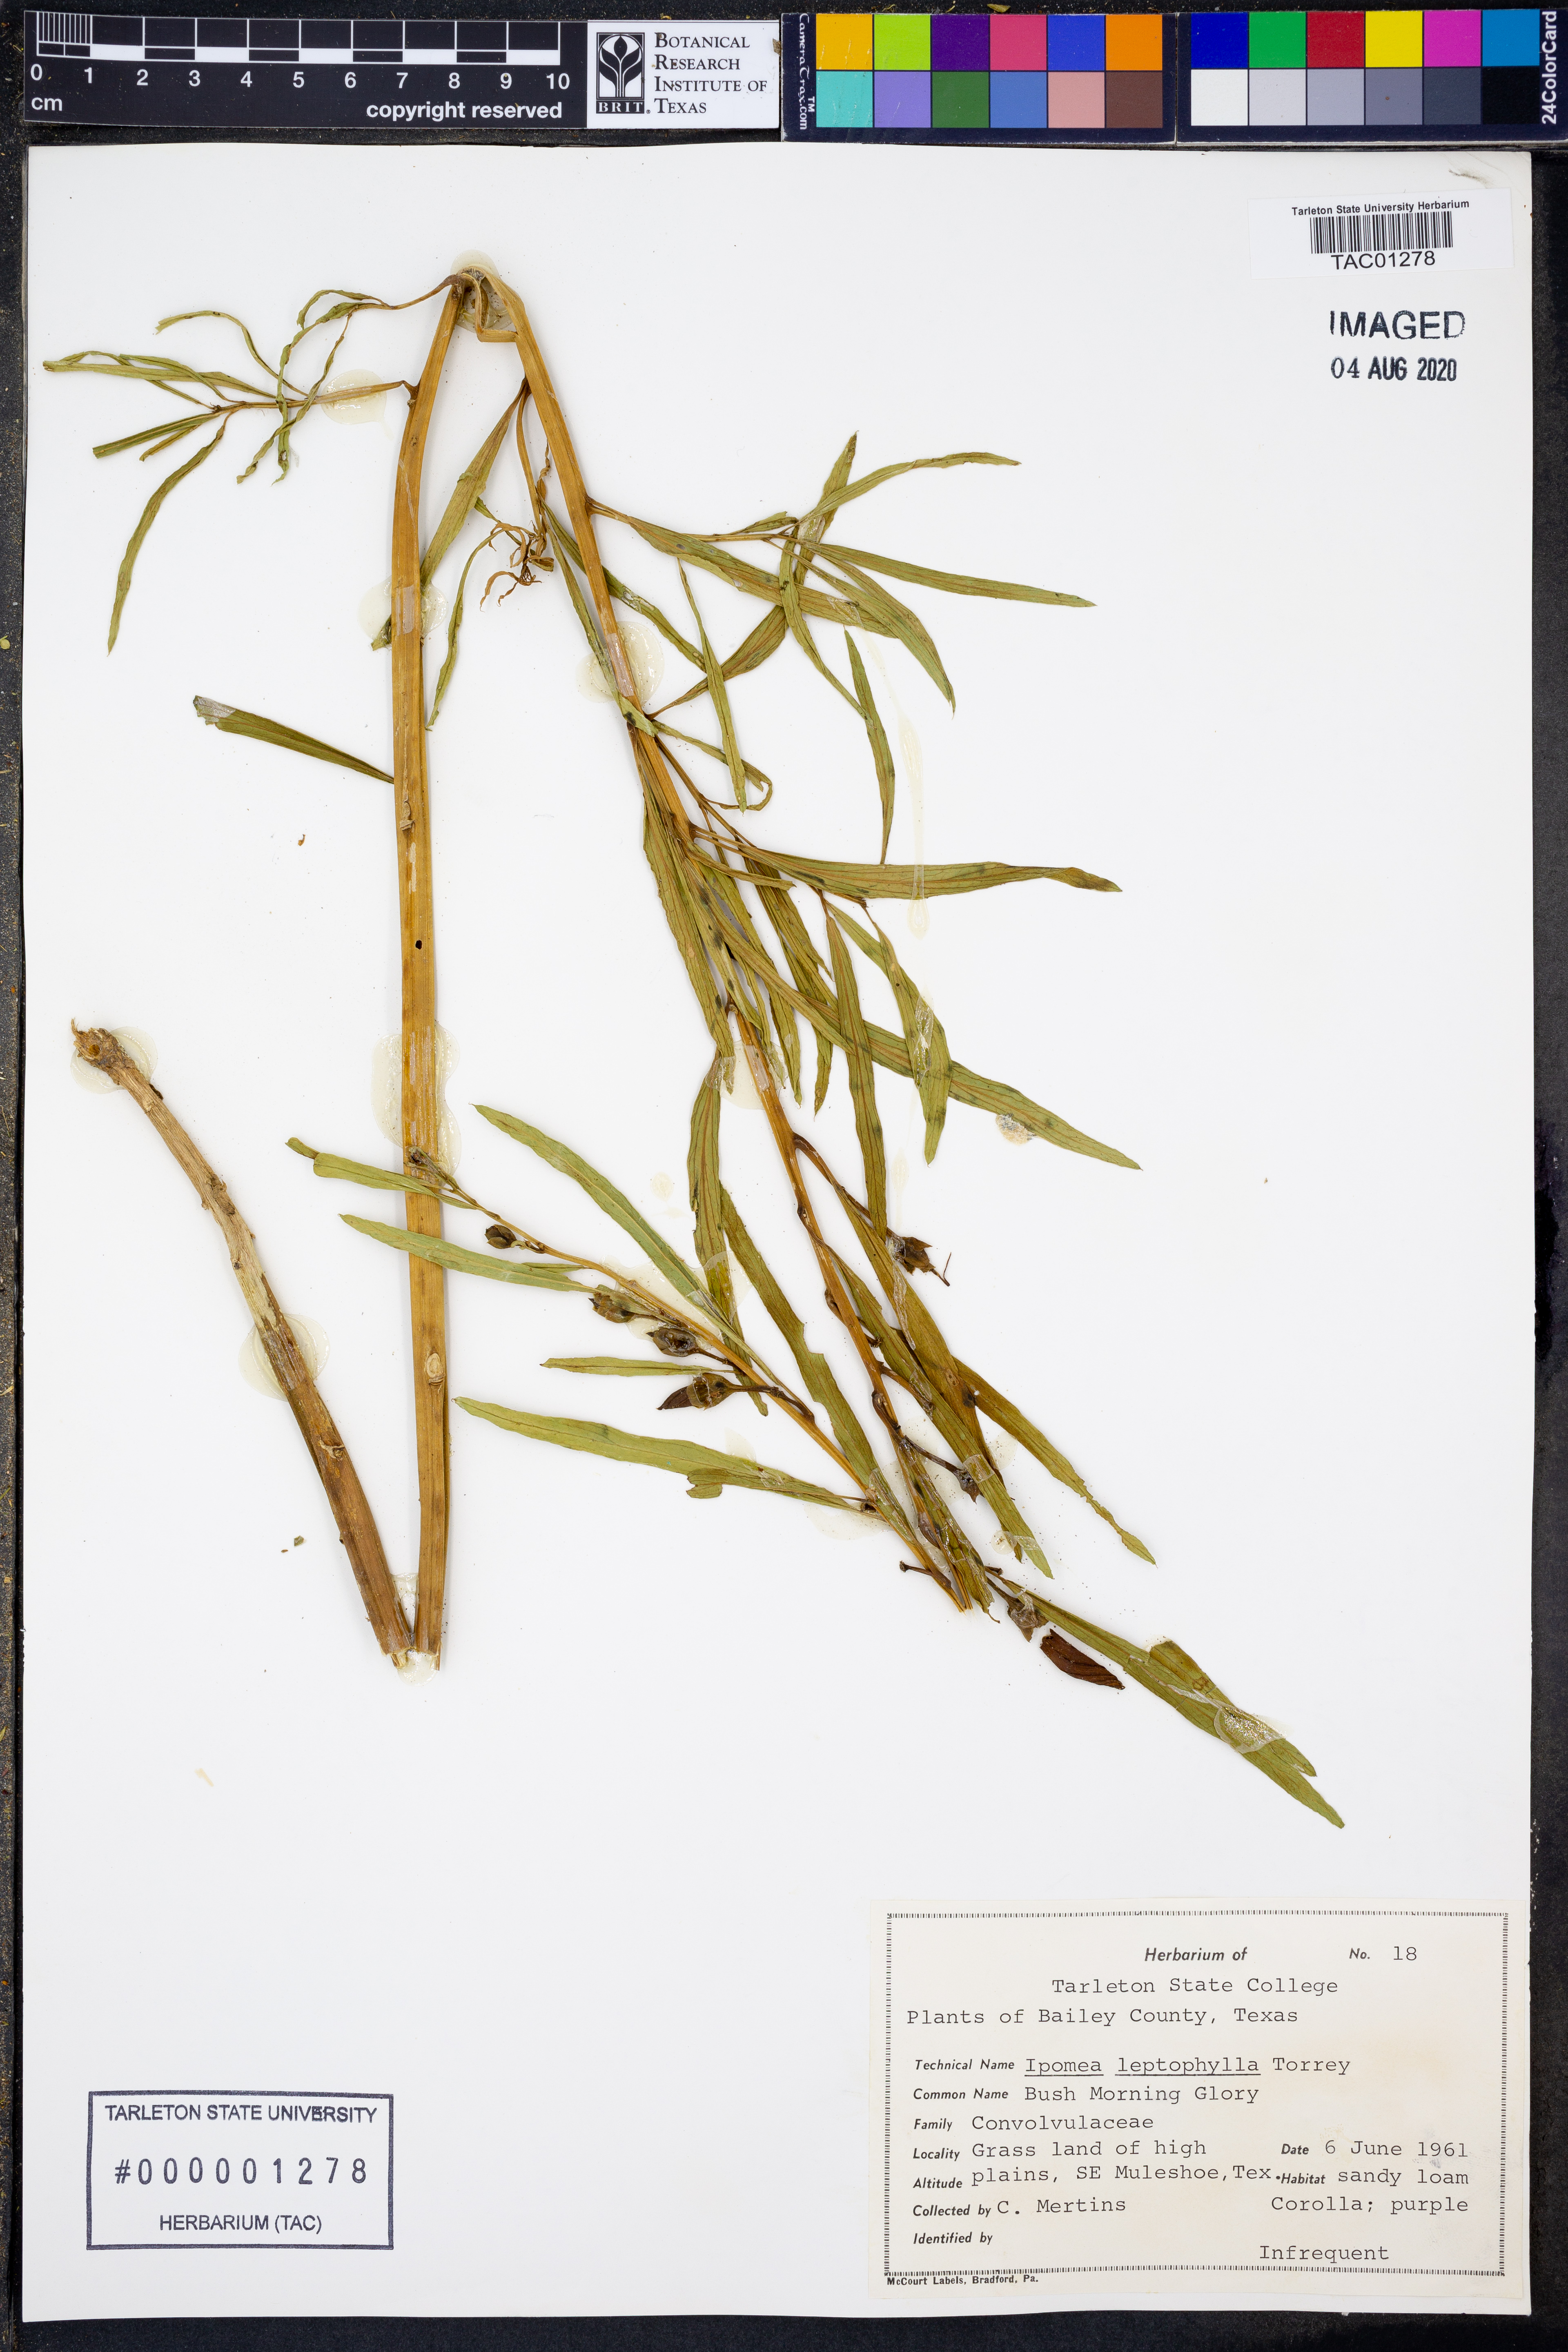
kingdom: Plantae
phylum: Tracheophyta
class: Magnoliopsida
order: Solanales
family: Convolvulaceae
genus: Ipomoea
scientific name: Ipomoea leptophylla
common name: Bush moonflower
